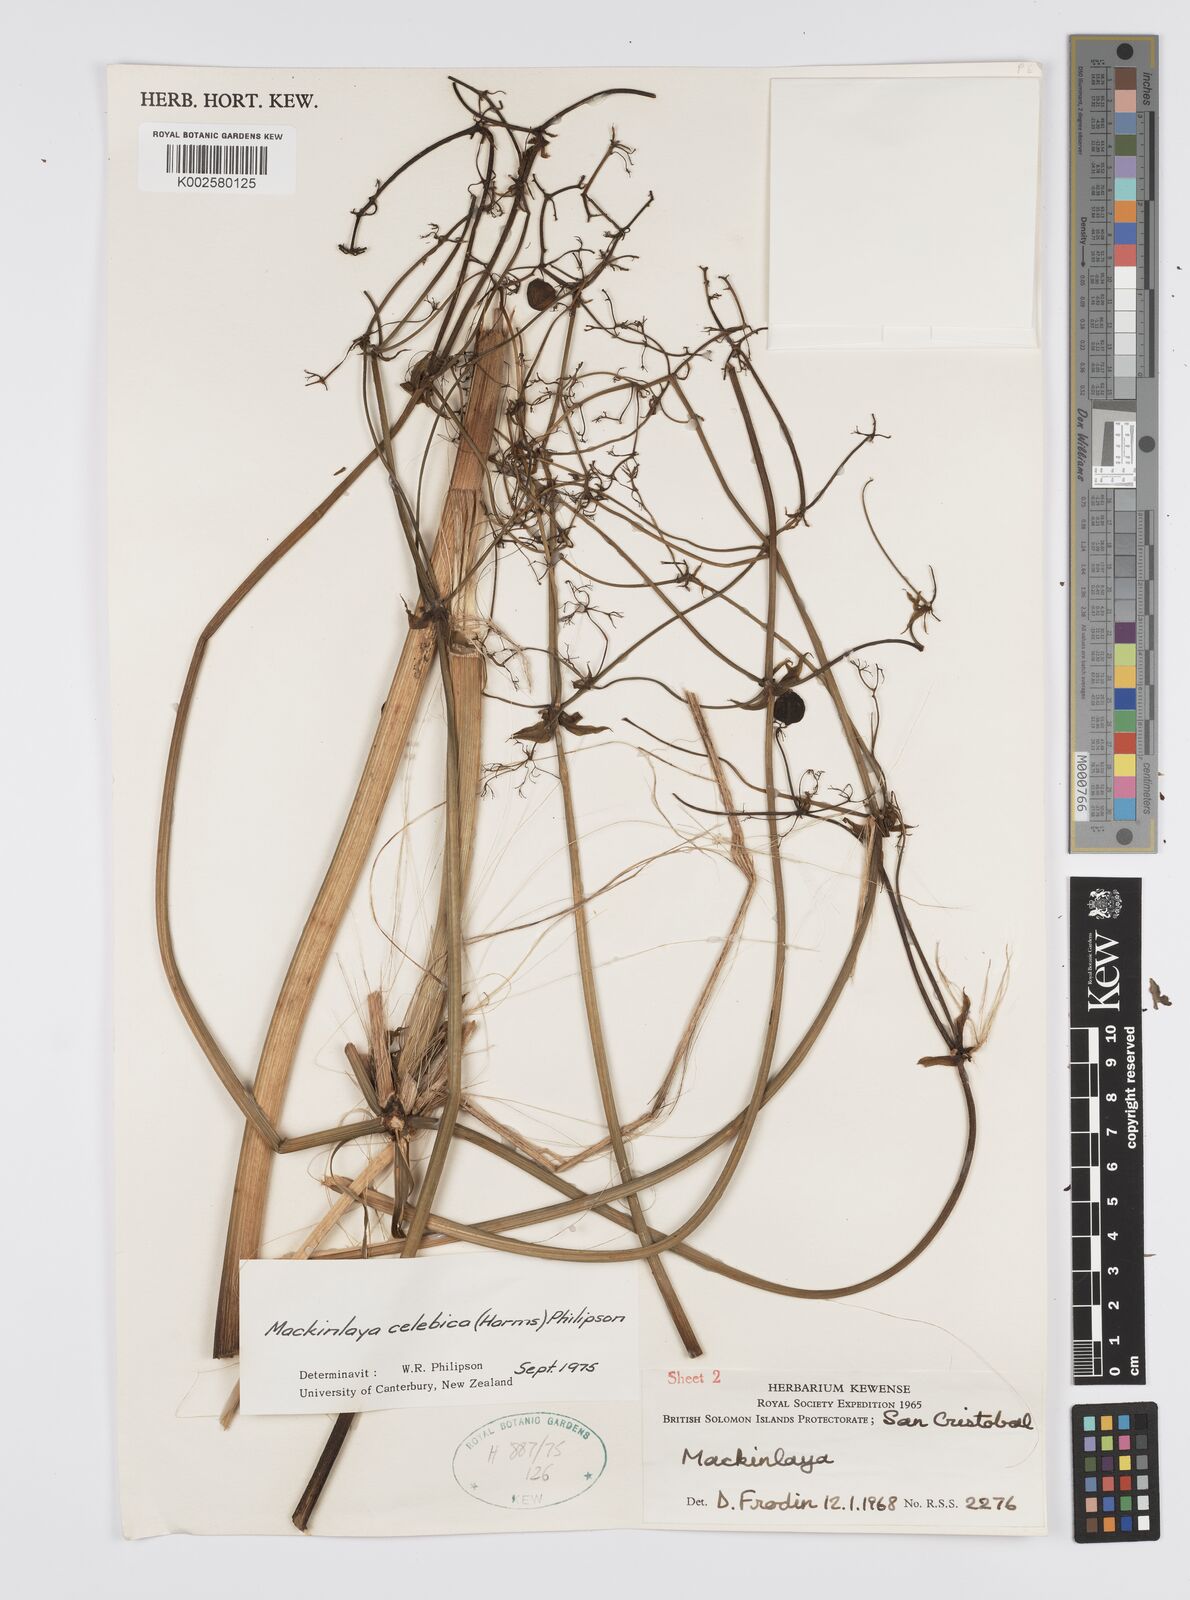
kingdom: Plantae
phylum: Tracheophyta
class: Magnoliopsida
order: Apiales
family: Apiaceae
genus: Mackinlaya
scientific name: Mackinlaya celebica
